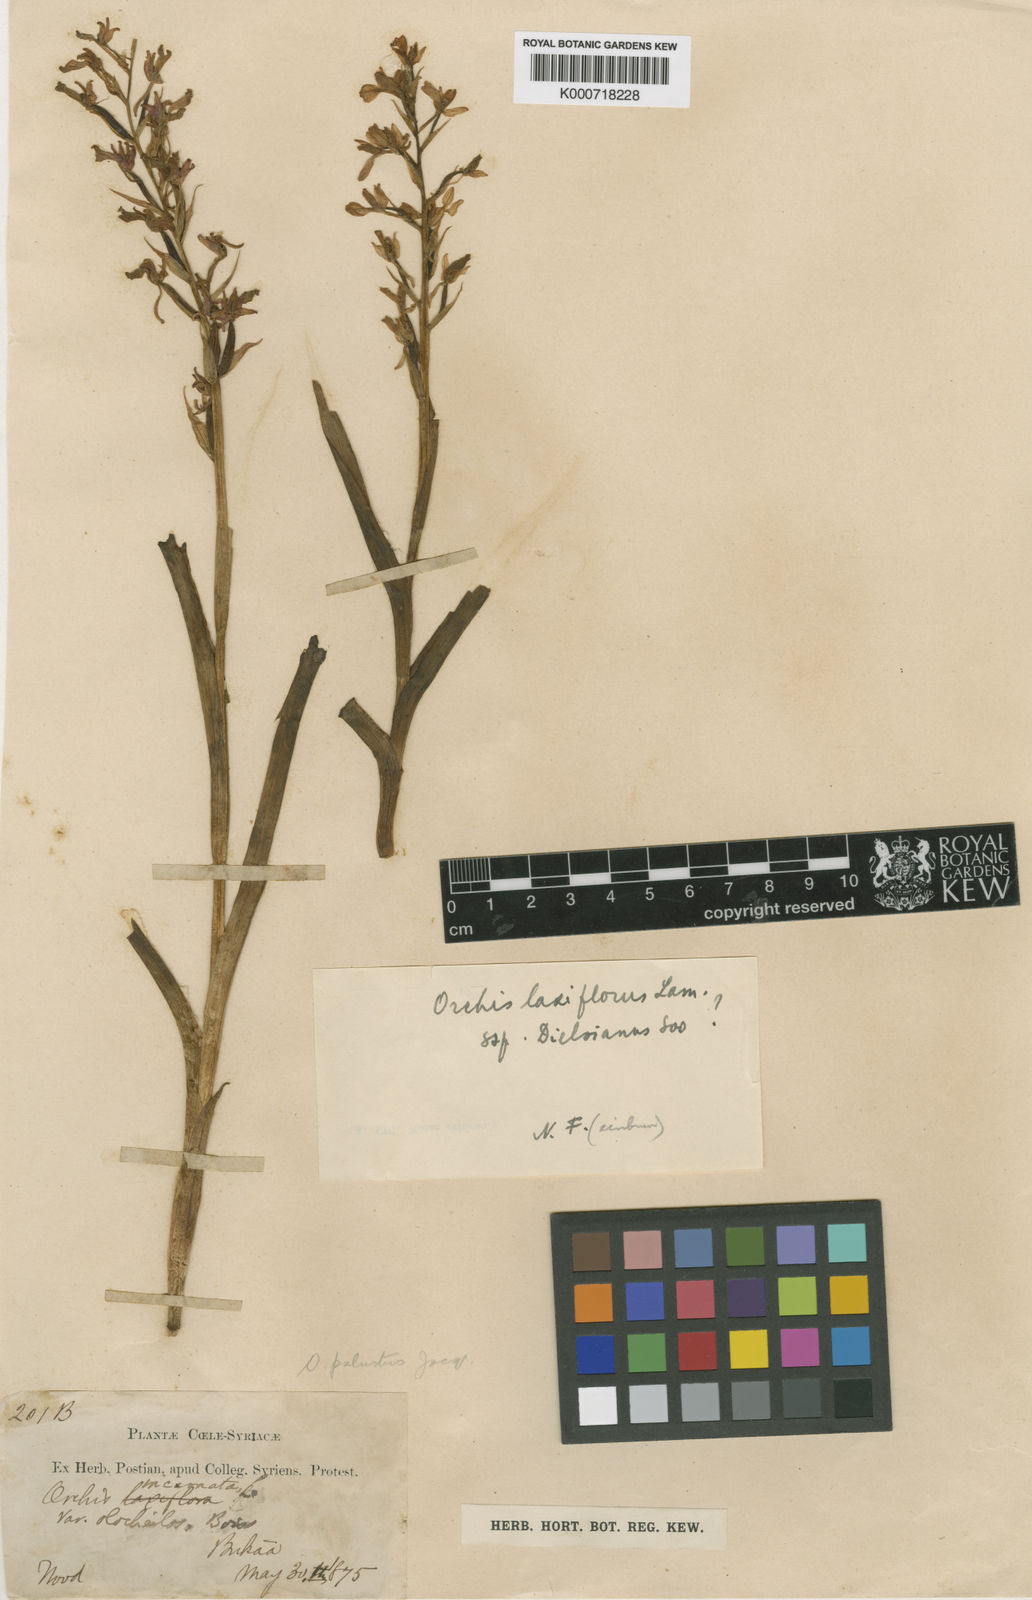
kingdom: Plantae
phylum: Tracheophyta
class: Liliopsida
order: Asparagales
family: Orchidaceae
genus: Anacamptis
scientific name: Anacamptis palustris
